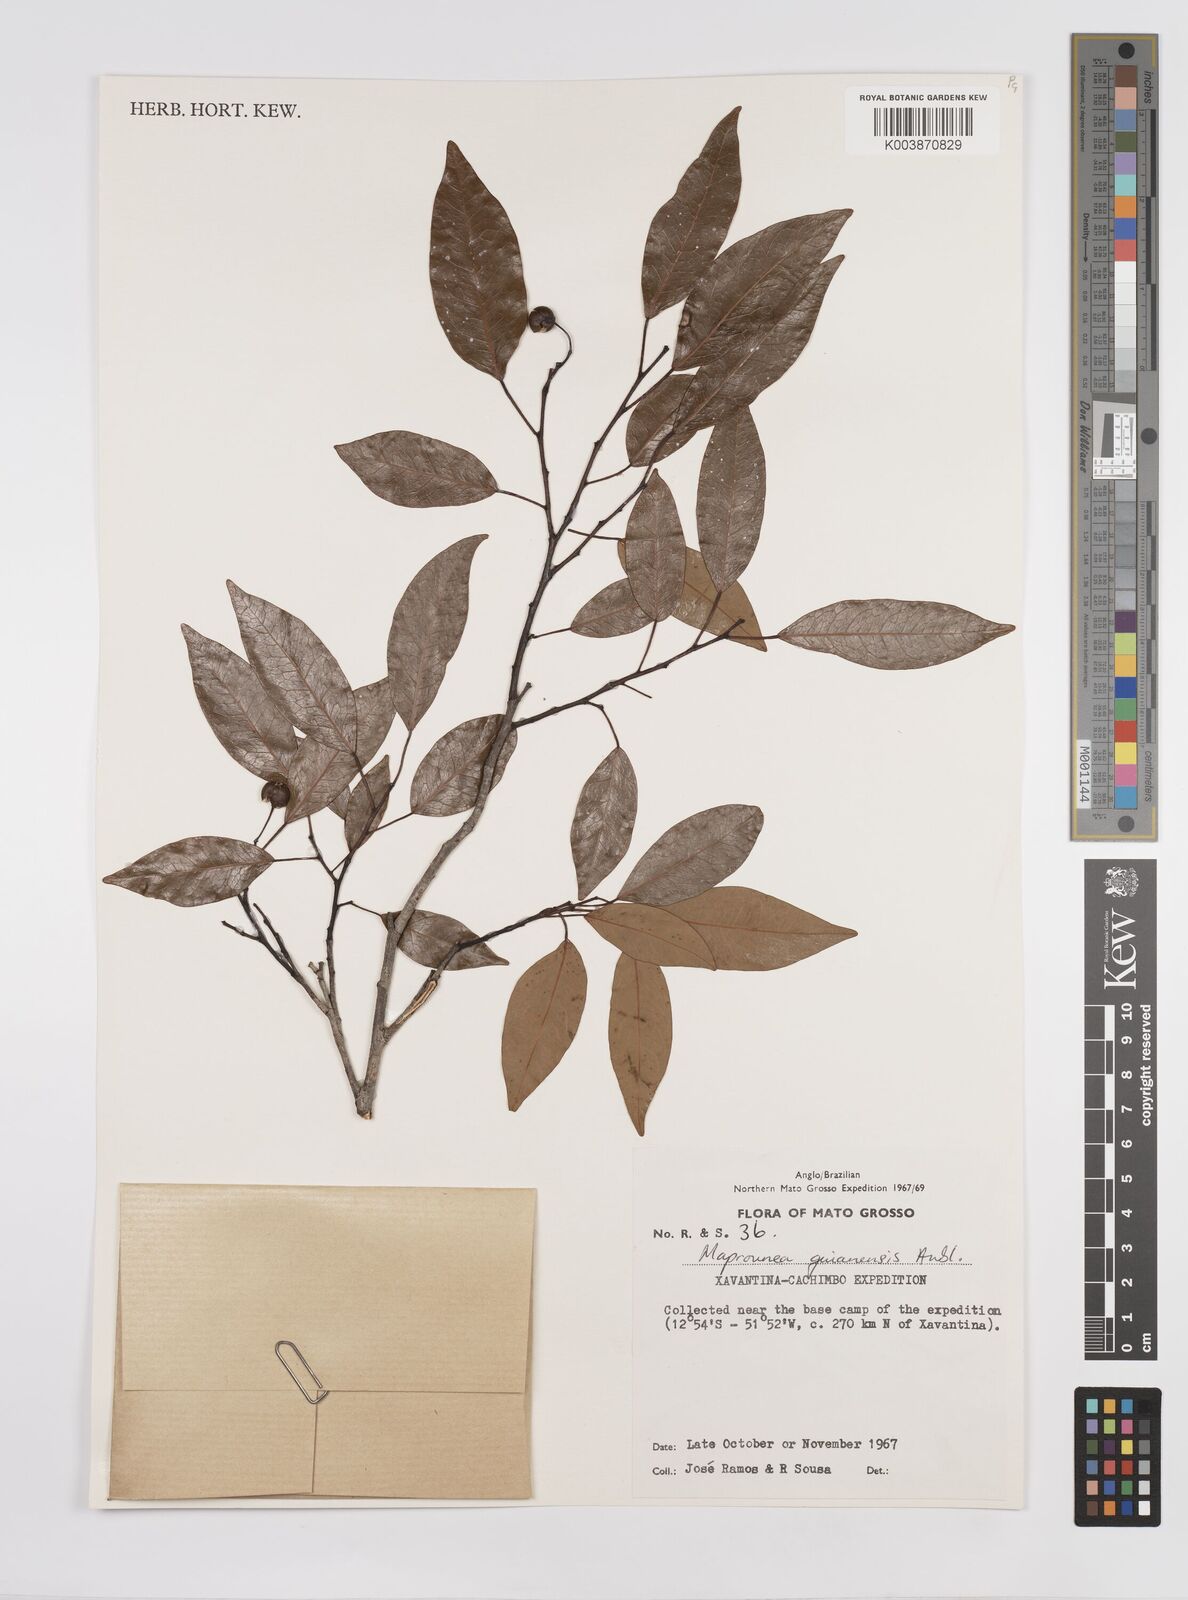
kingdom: Plantae
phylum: Tracheophyta
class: Magnoliopsida
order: Malpighiales
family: Euphorbiaceae
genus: Maprounea
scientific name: Maprounea guianensis
